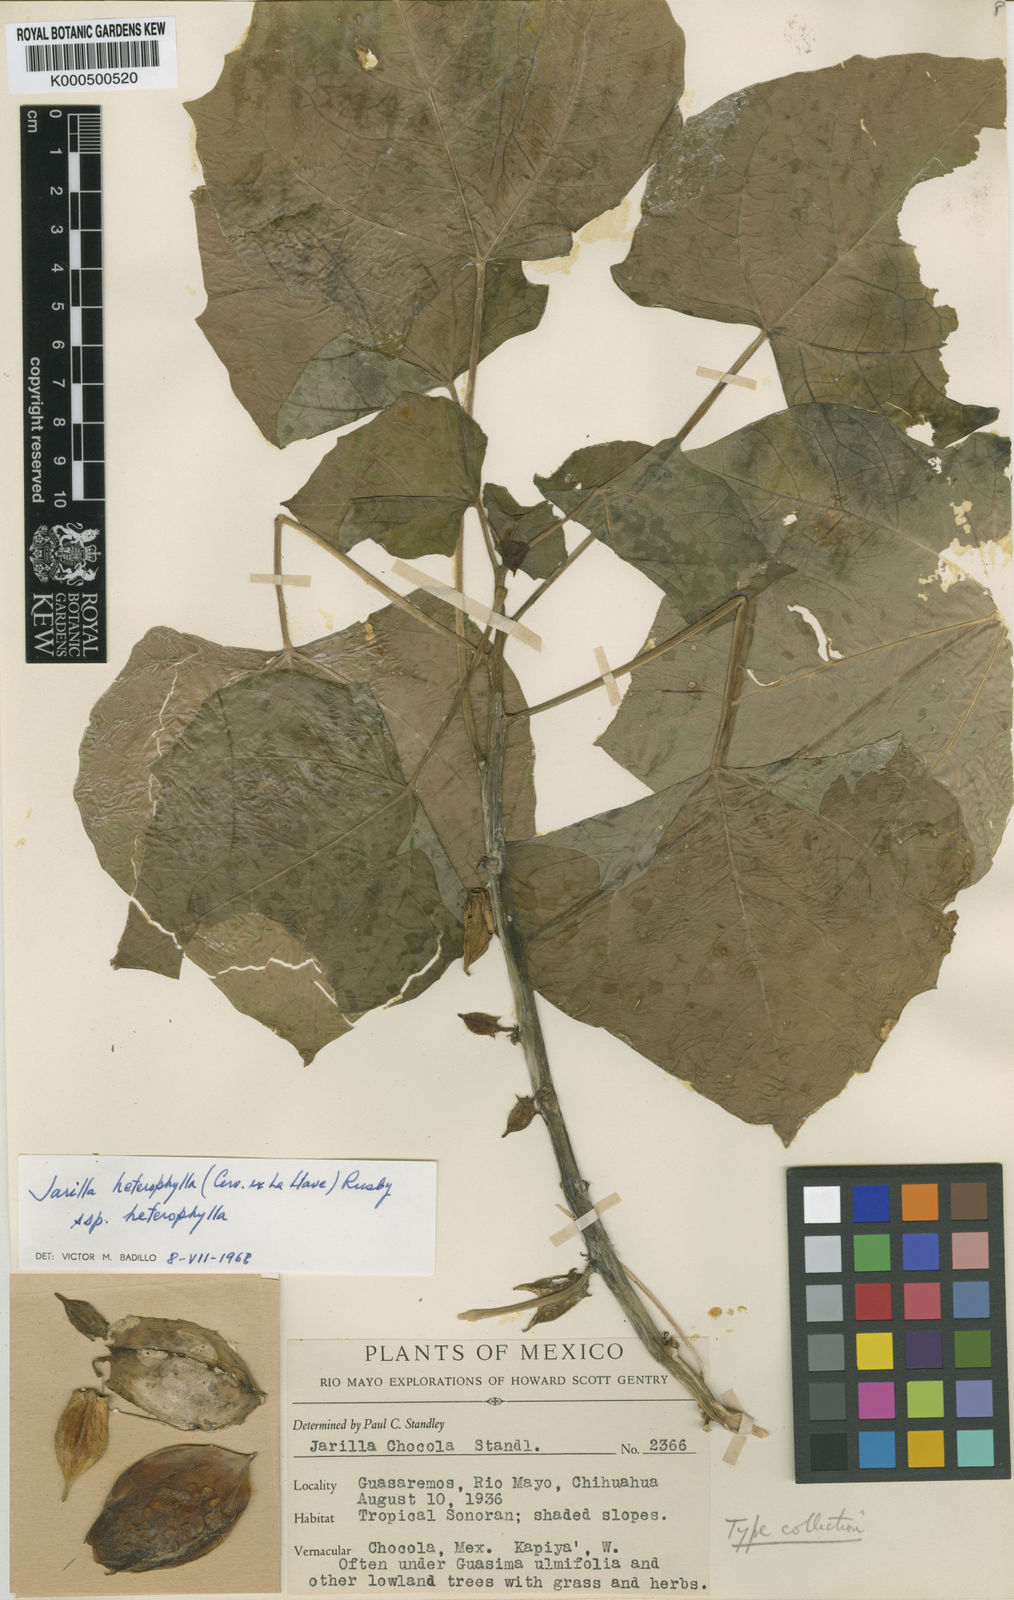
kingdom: Plantae
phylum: Tracheophyta
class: Magnoliopsida
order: Brassicales
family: Caricaceae
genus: Jarilla
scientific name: Jarilla chocola
